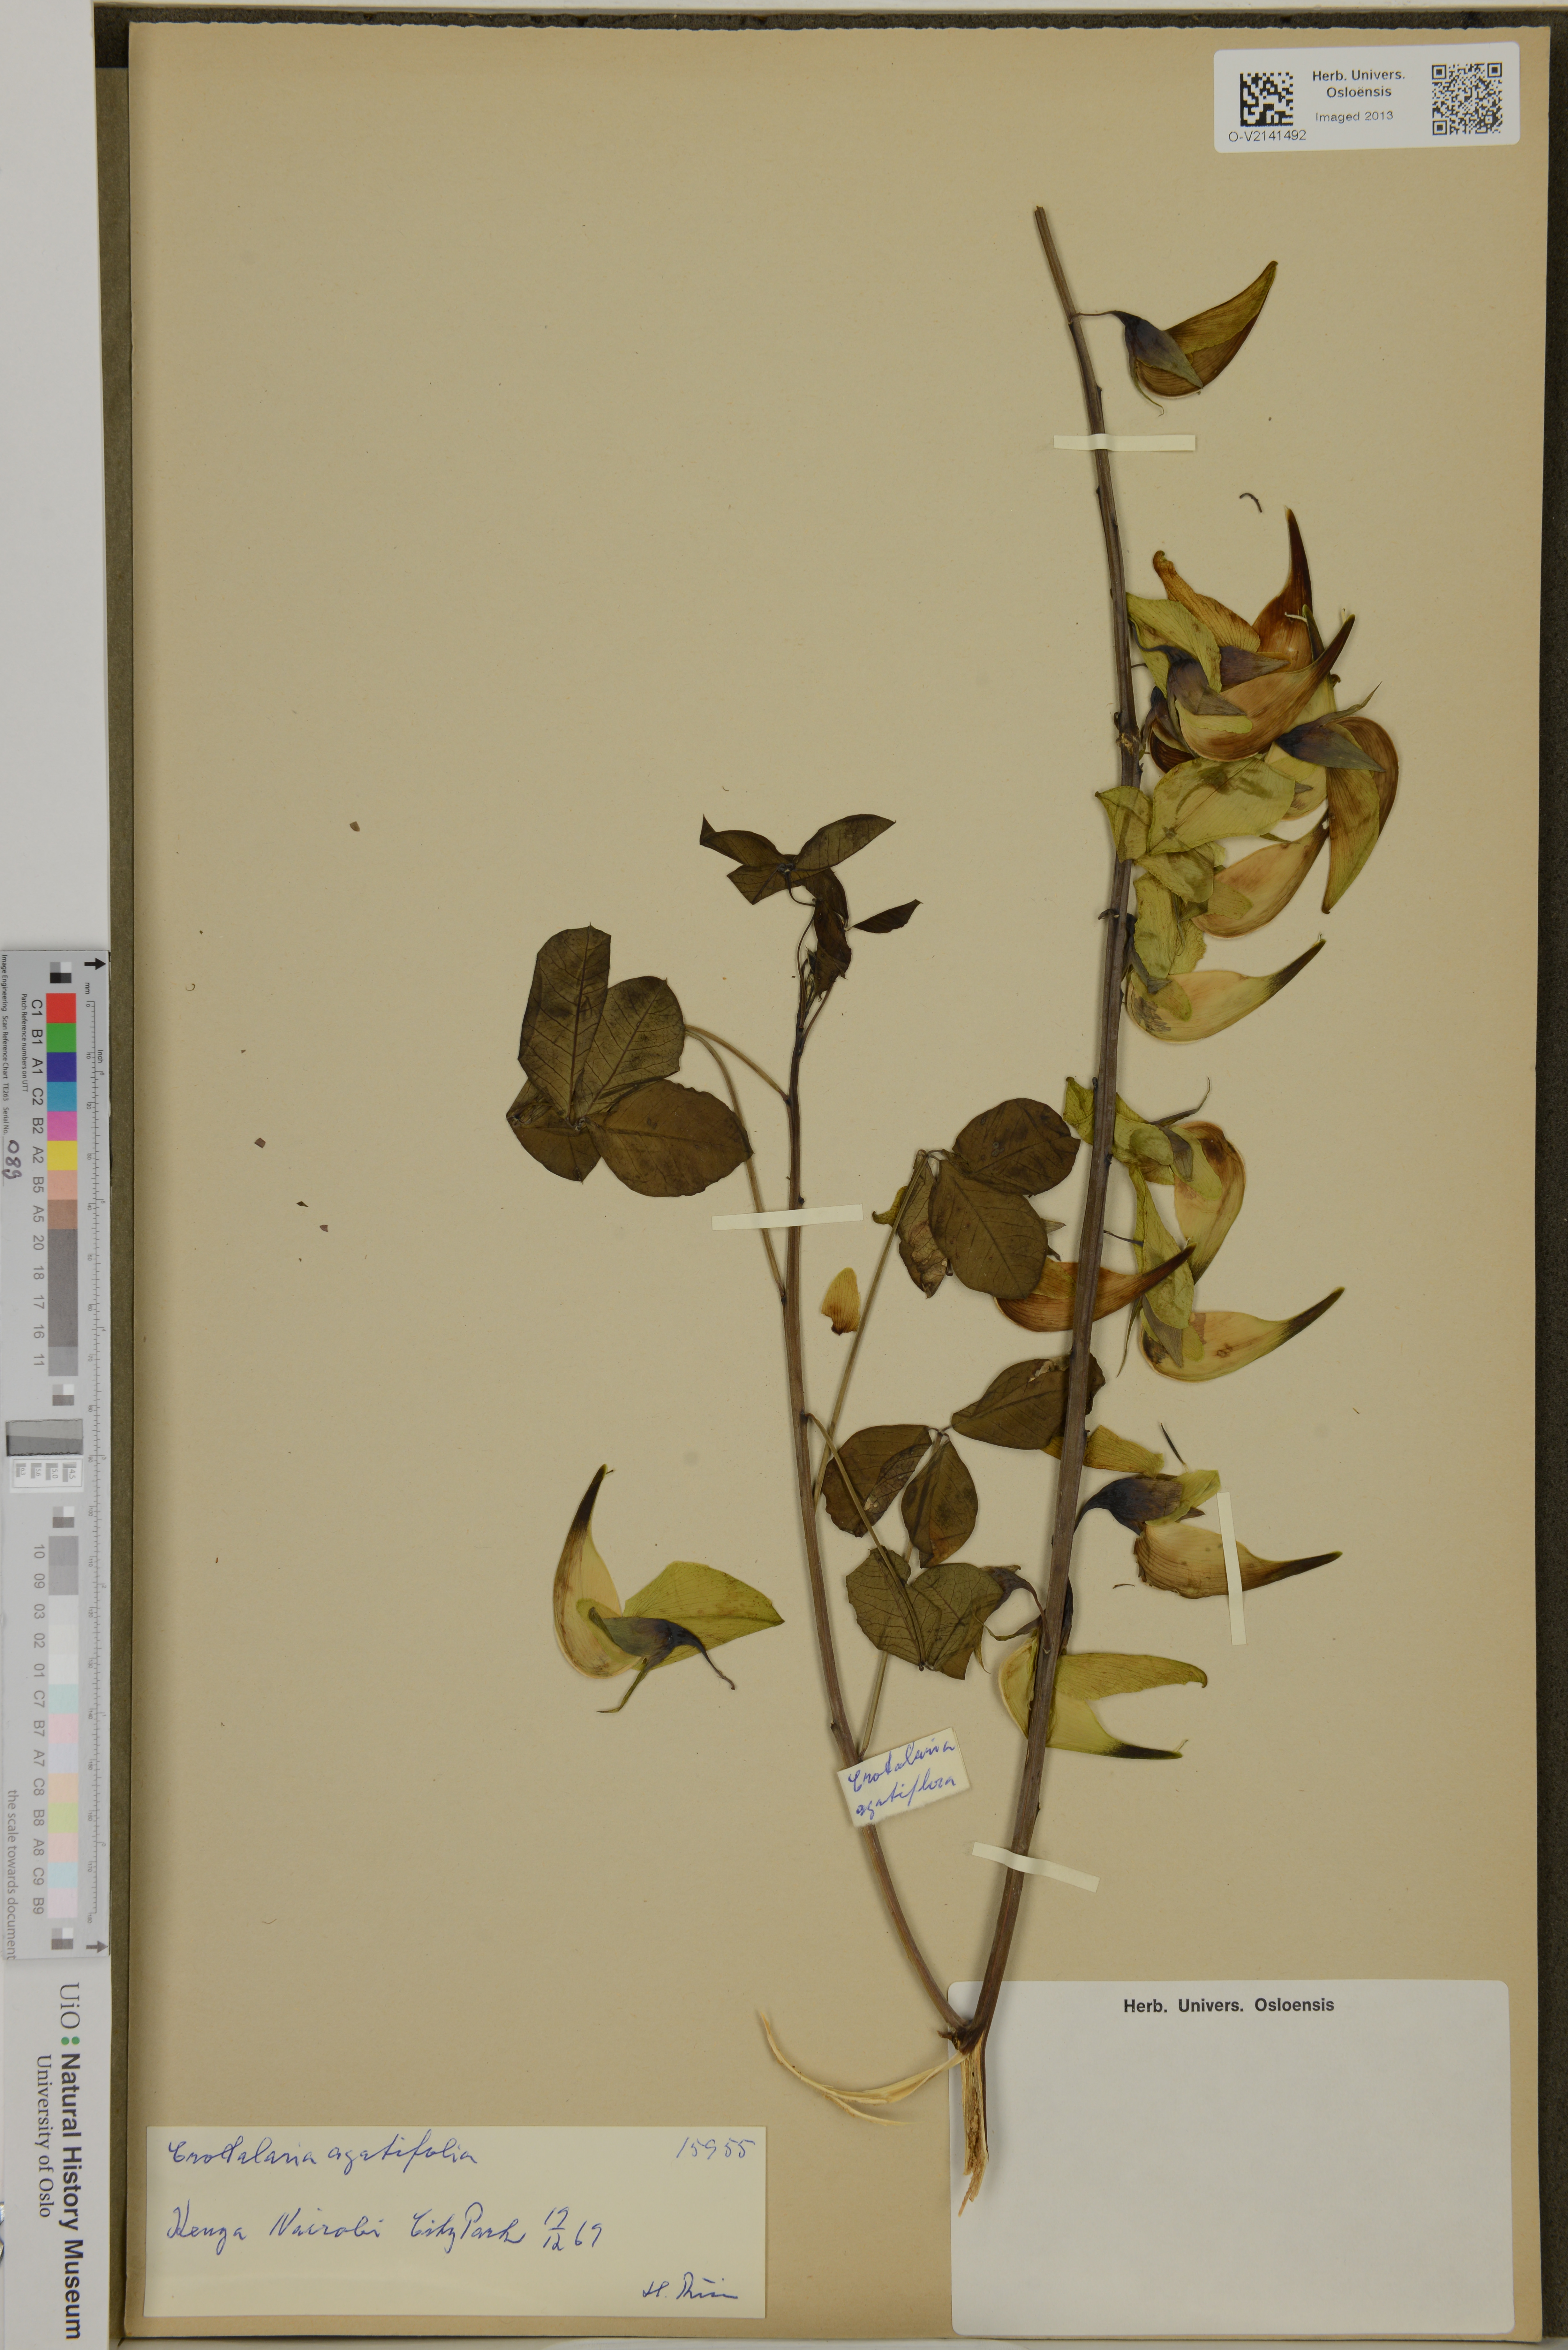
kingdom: Plantae
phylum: Tracheophyta
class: Magnoliopsida
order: Fabales
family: Fabaceae
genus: Crotalaria
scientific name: Crotalaria agatiflora
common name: Birdflower
